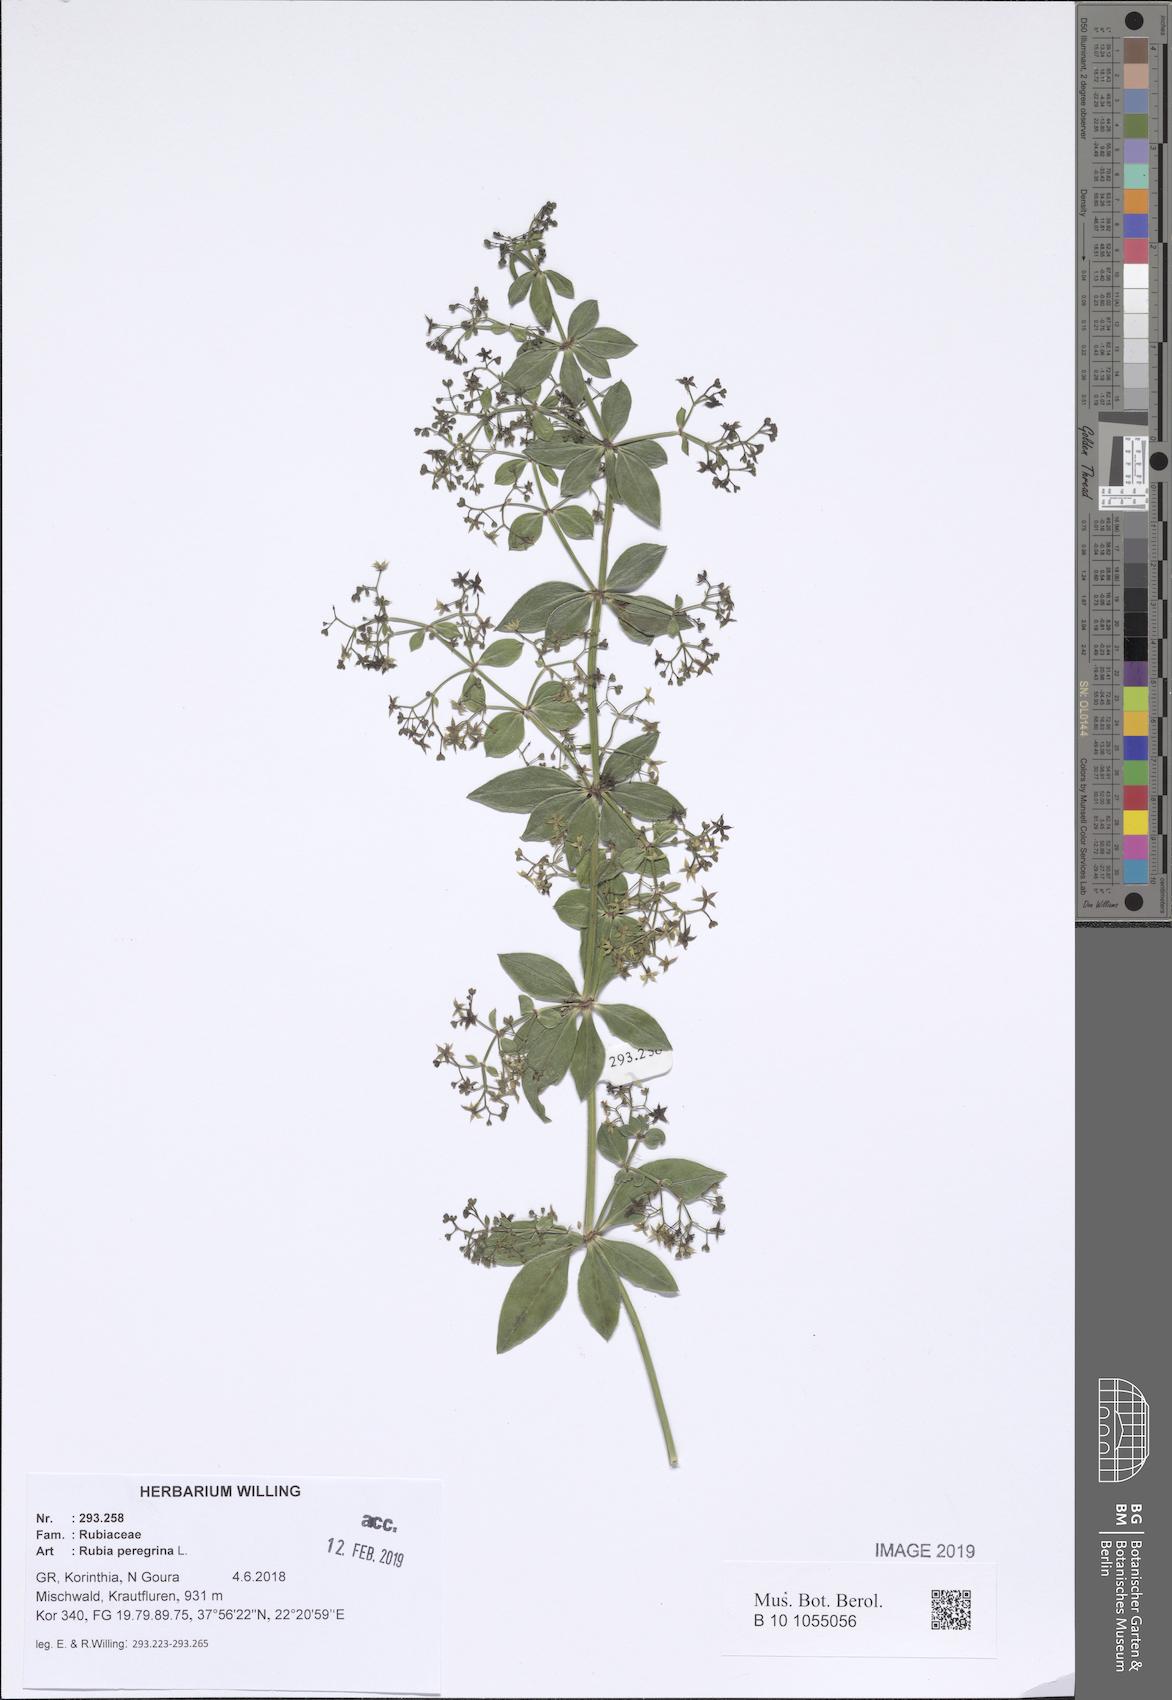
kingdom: Plantae
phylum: Tracheophyta
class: Magnoliopsida
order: Gentianales
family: Rubiaceae
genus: Rubia
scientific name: Rubia peregrina
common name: Wild madder
